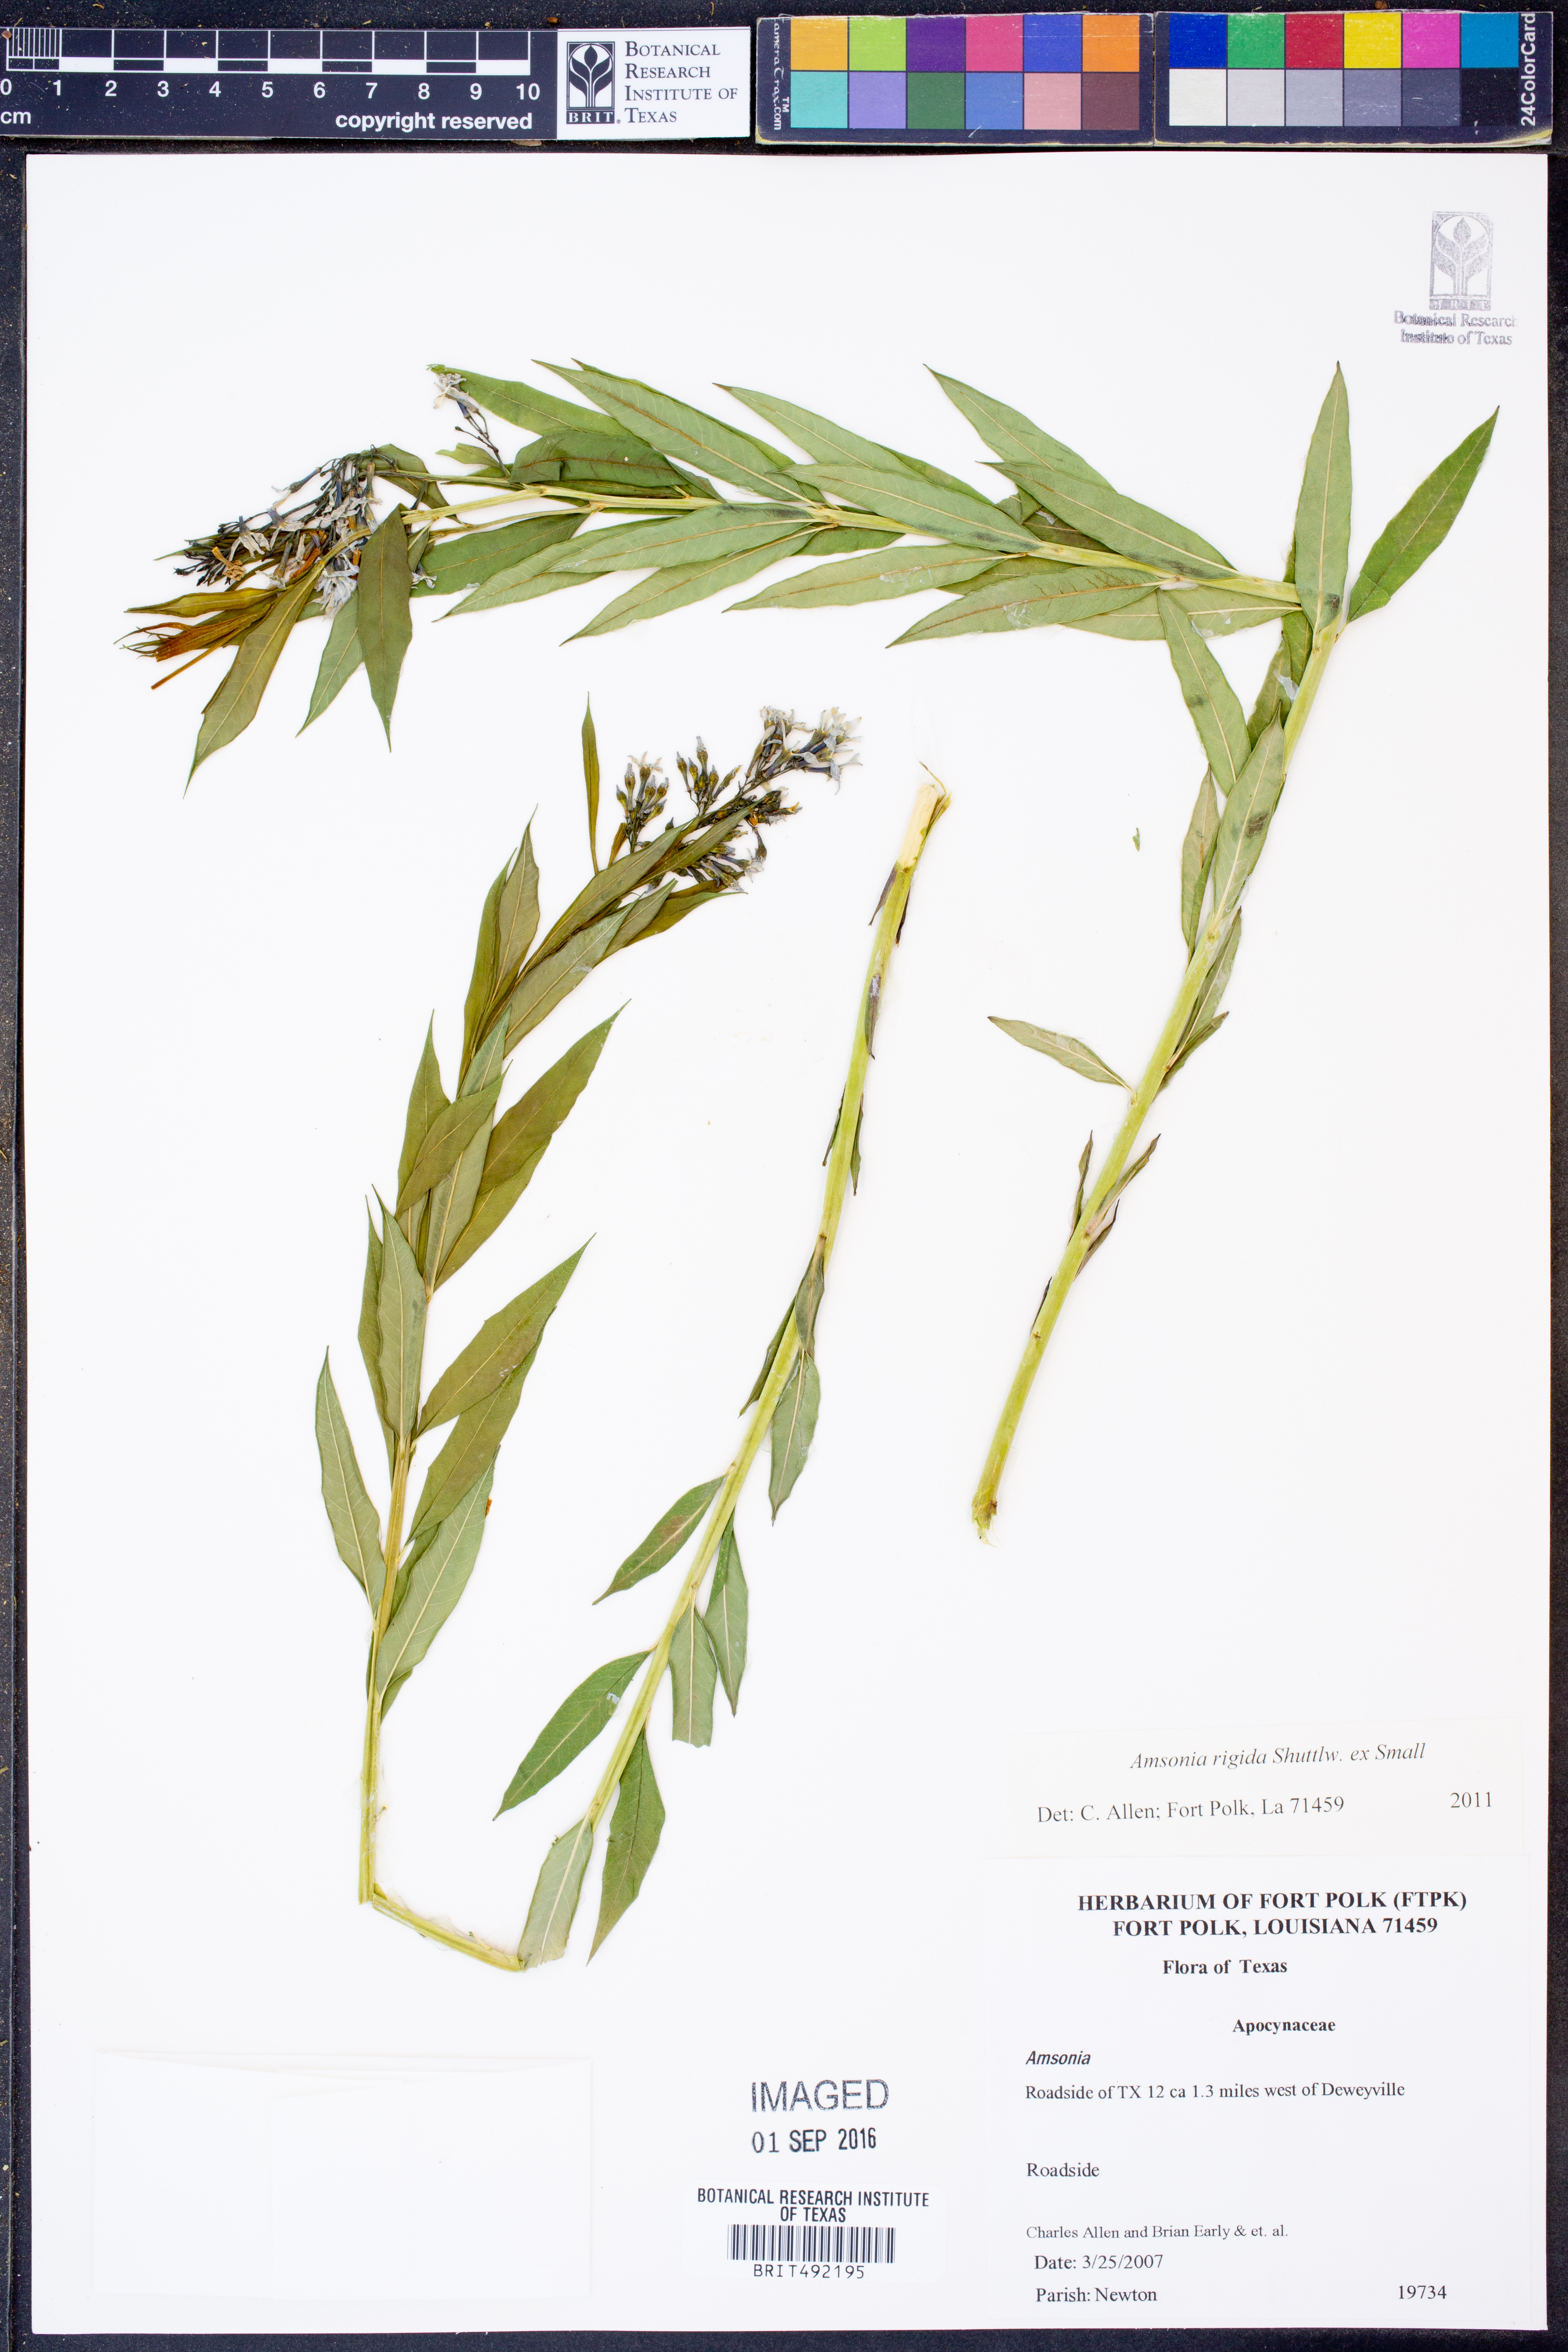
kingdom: Plantae
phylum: Tracheophyta
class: Magnoliopsida
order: Gentianales
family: Apocynaceae
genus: Amsonia
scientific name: Amsonia rigida
